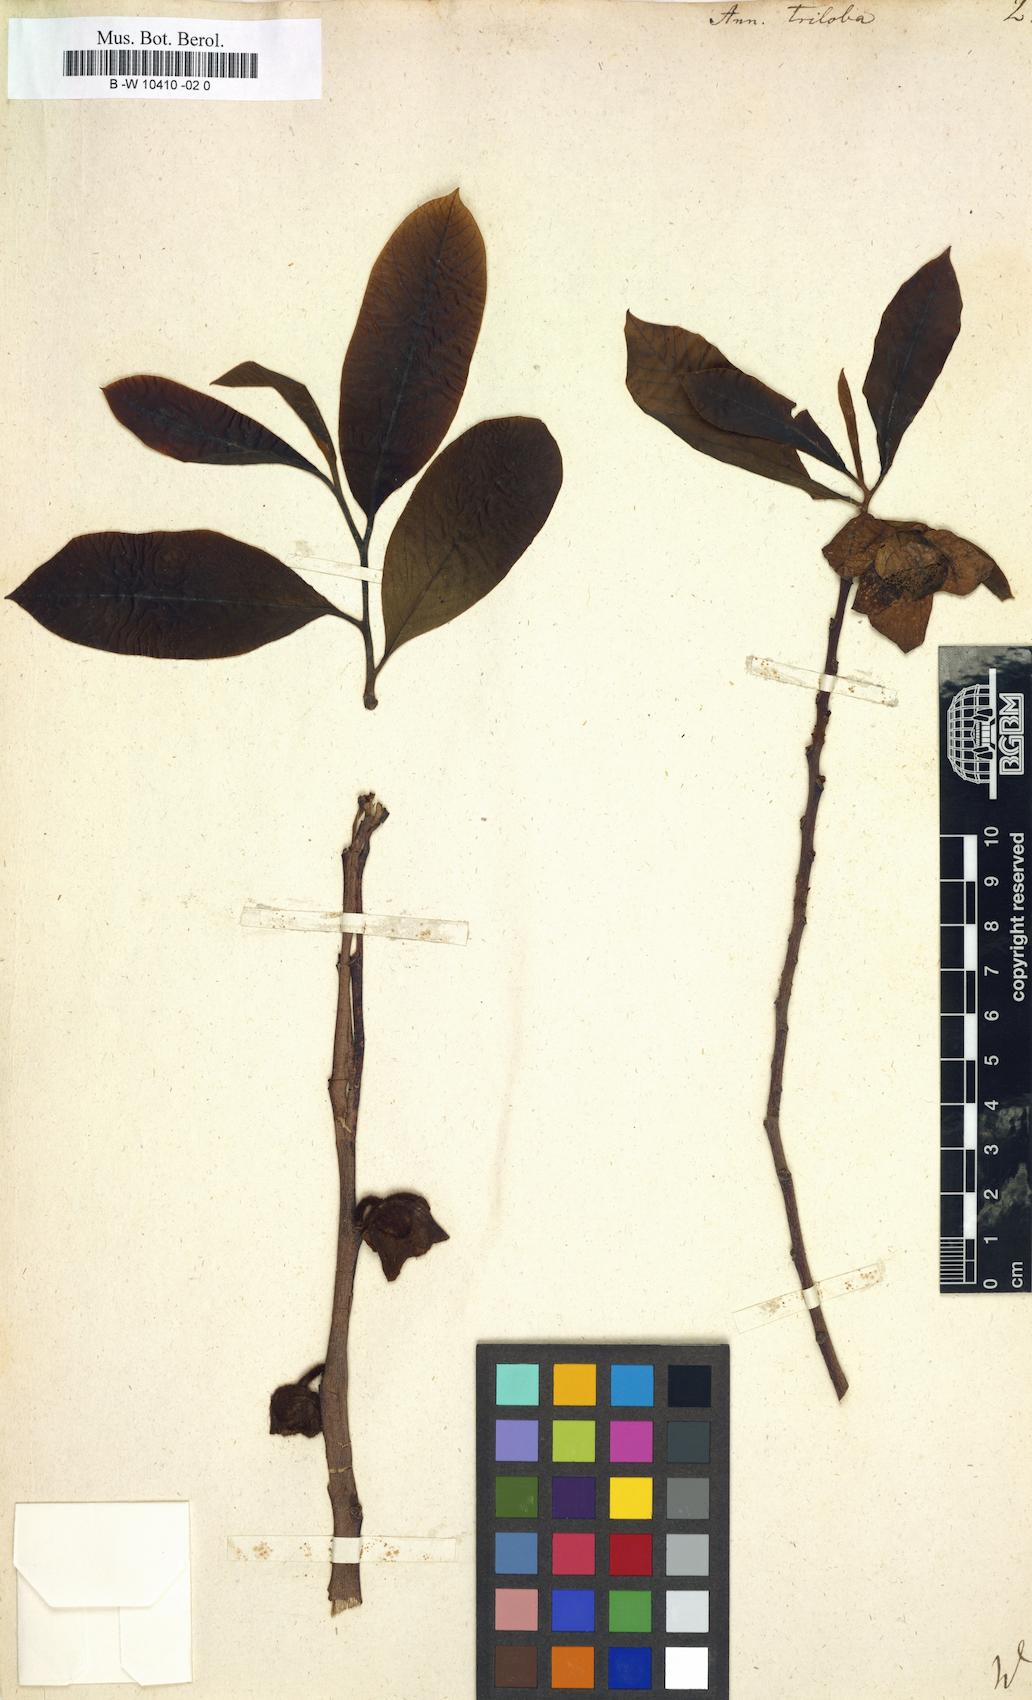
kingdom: Plantae
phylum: Tracheophyta
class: Magnoliopsida
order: Magnoliales
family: Annonaceae
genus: Asimina
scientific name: Asimina triloba
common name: Dog-banana
